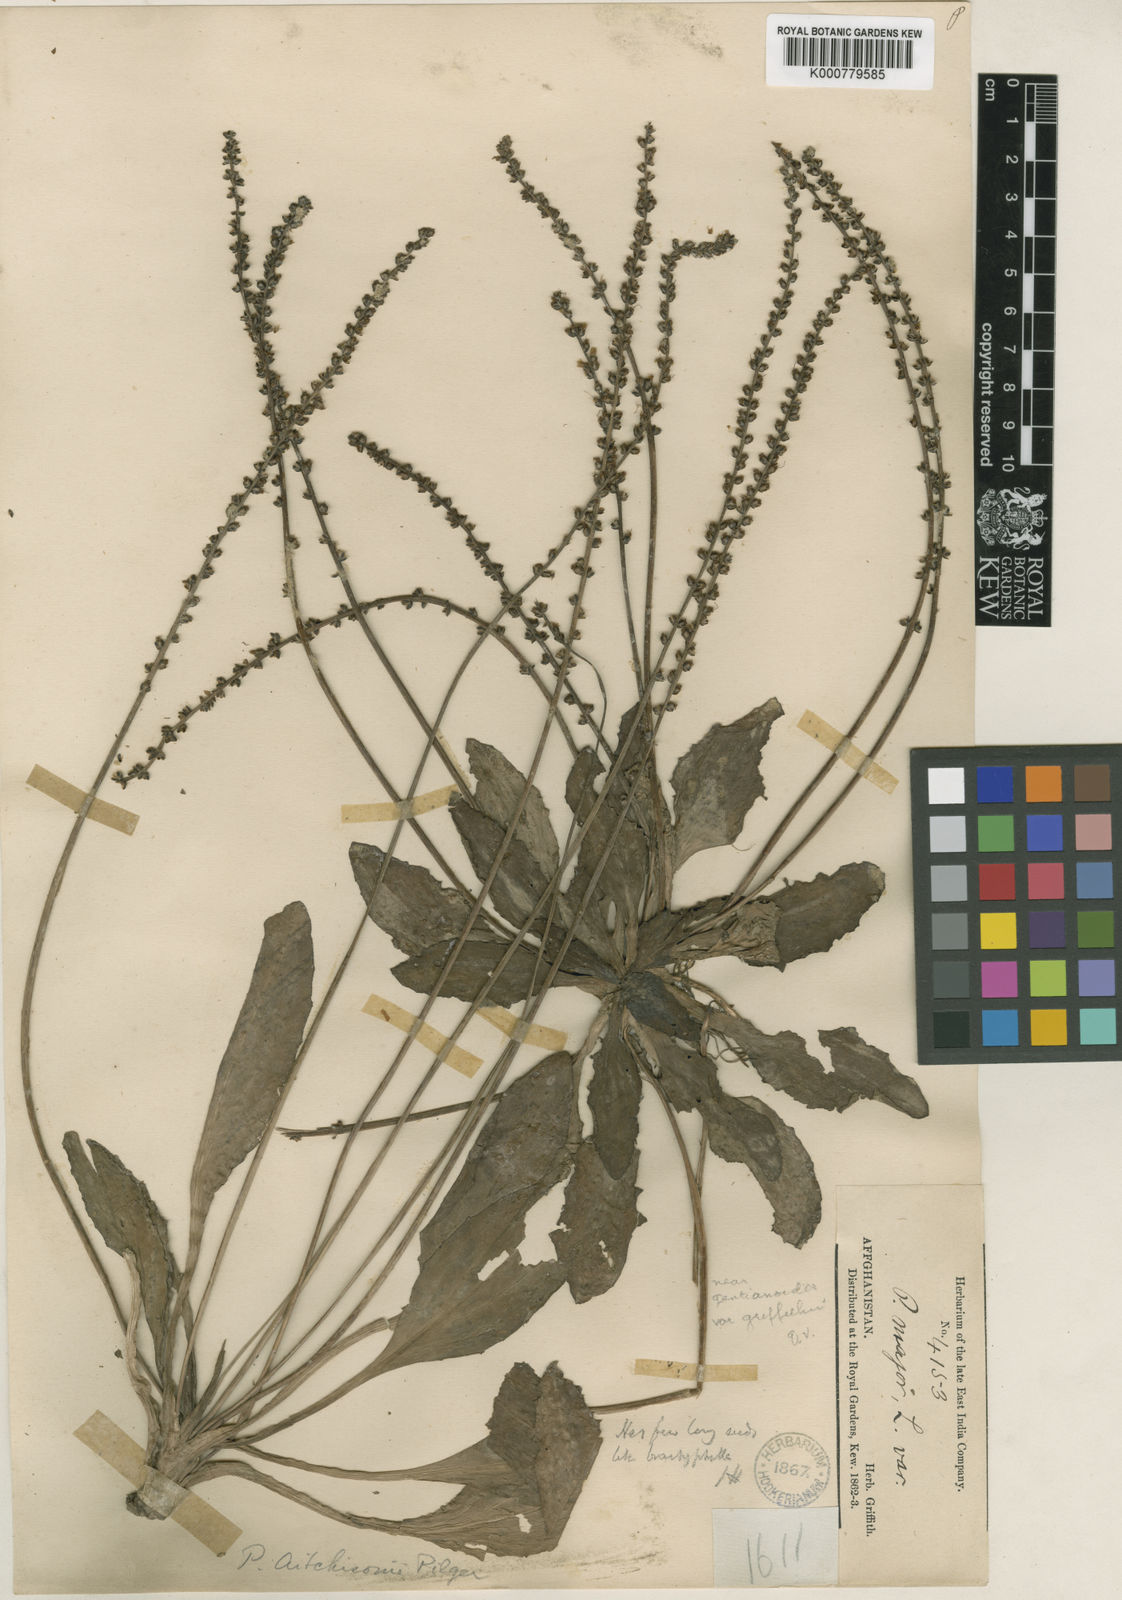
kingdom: Plantae
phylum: Tracheophyta
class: Magnoliopsida
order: Lamiales
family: Plantaginaceae
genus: Plantago
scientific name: Plantago
